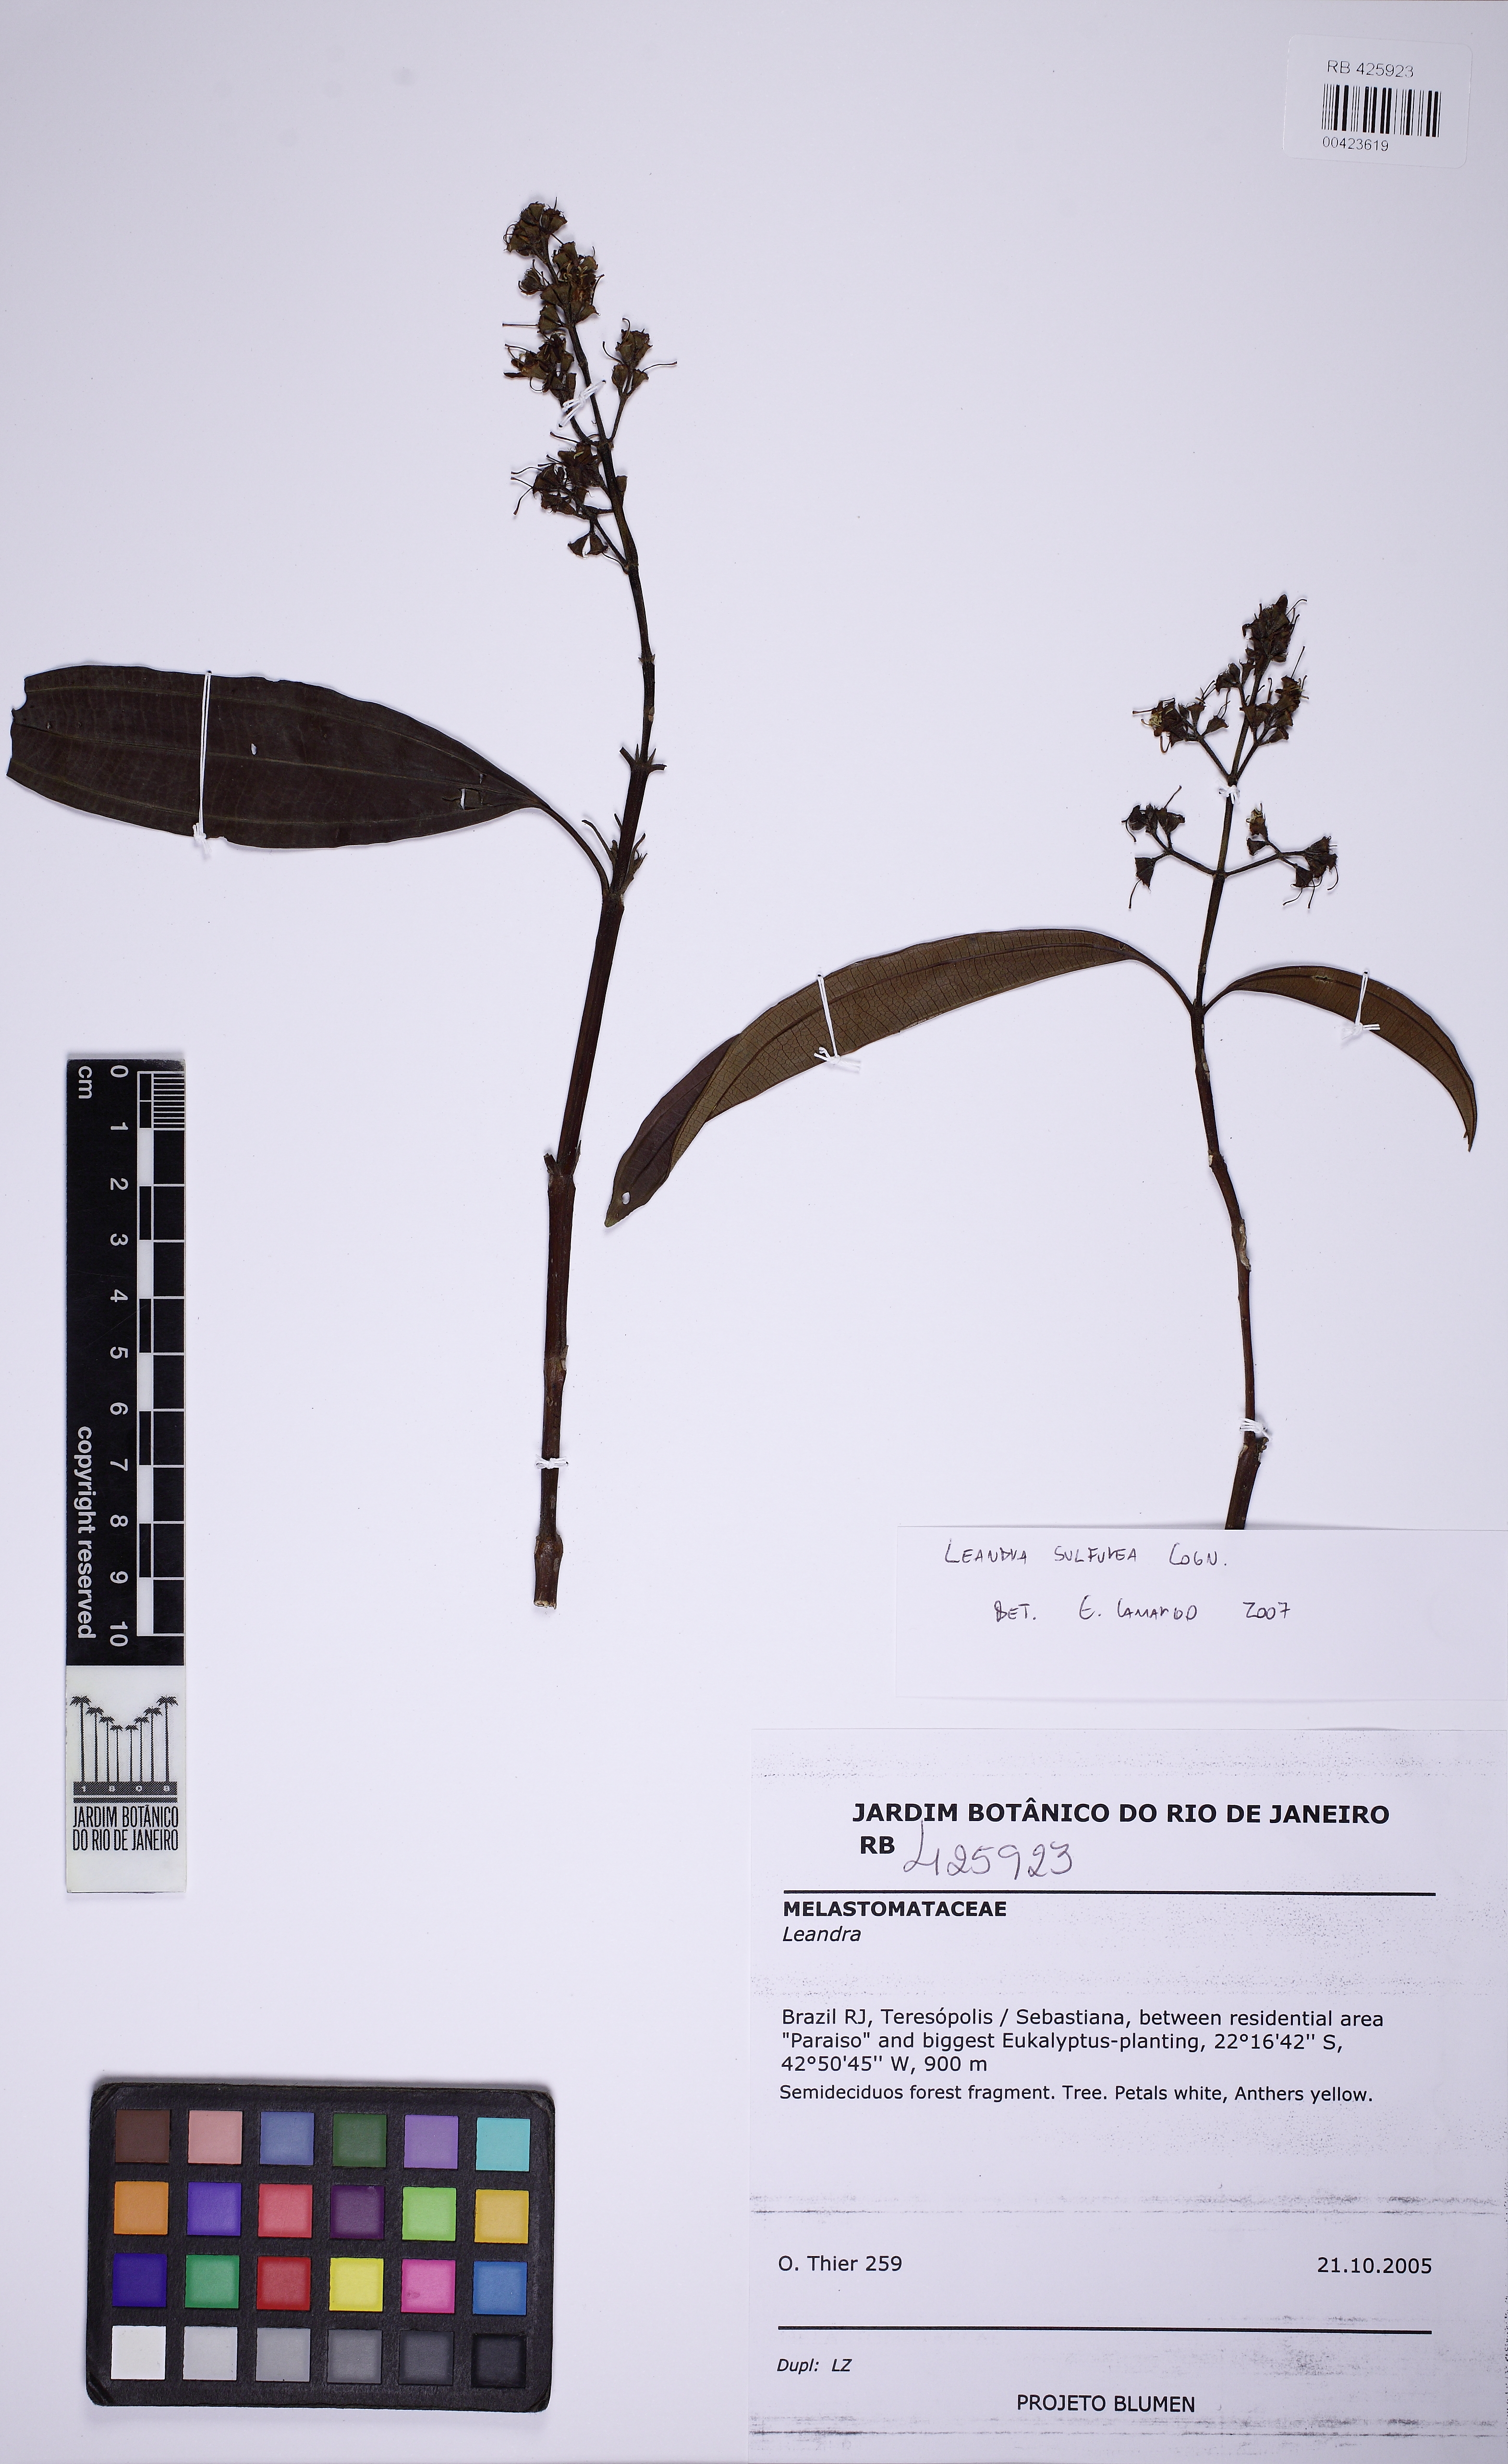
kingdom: Plantae
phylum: Tracheophyta
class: Magnoliopsida
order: Myrtales
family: Melastomataceae
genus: Miconia
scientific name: Miconia sulfurea
